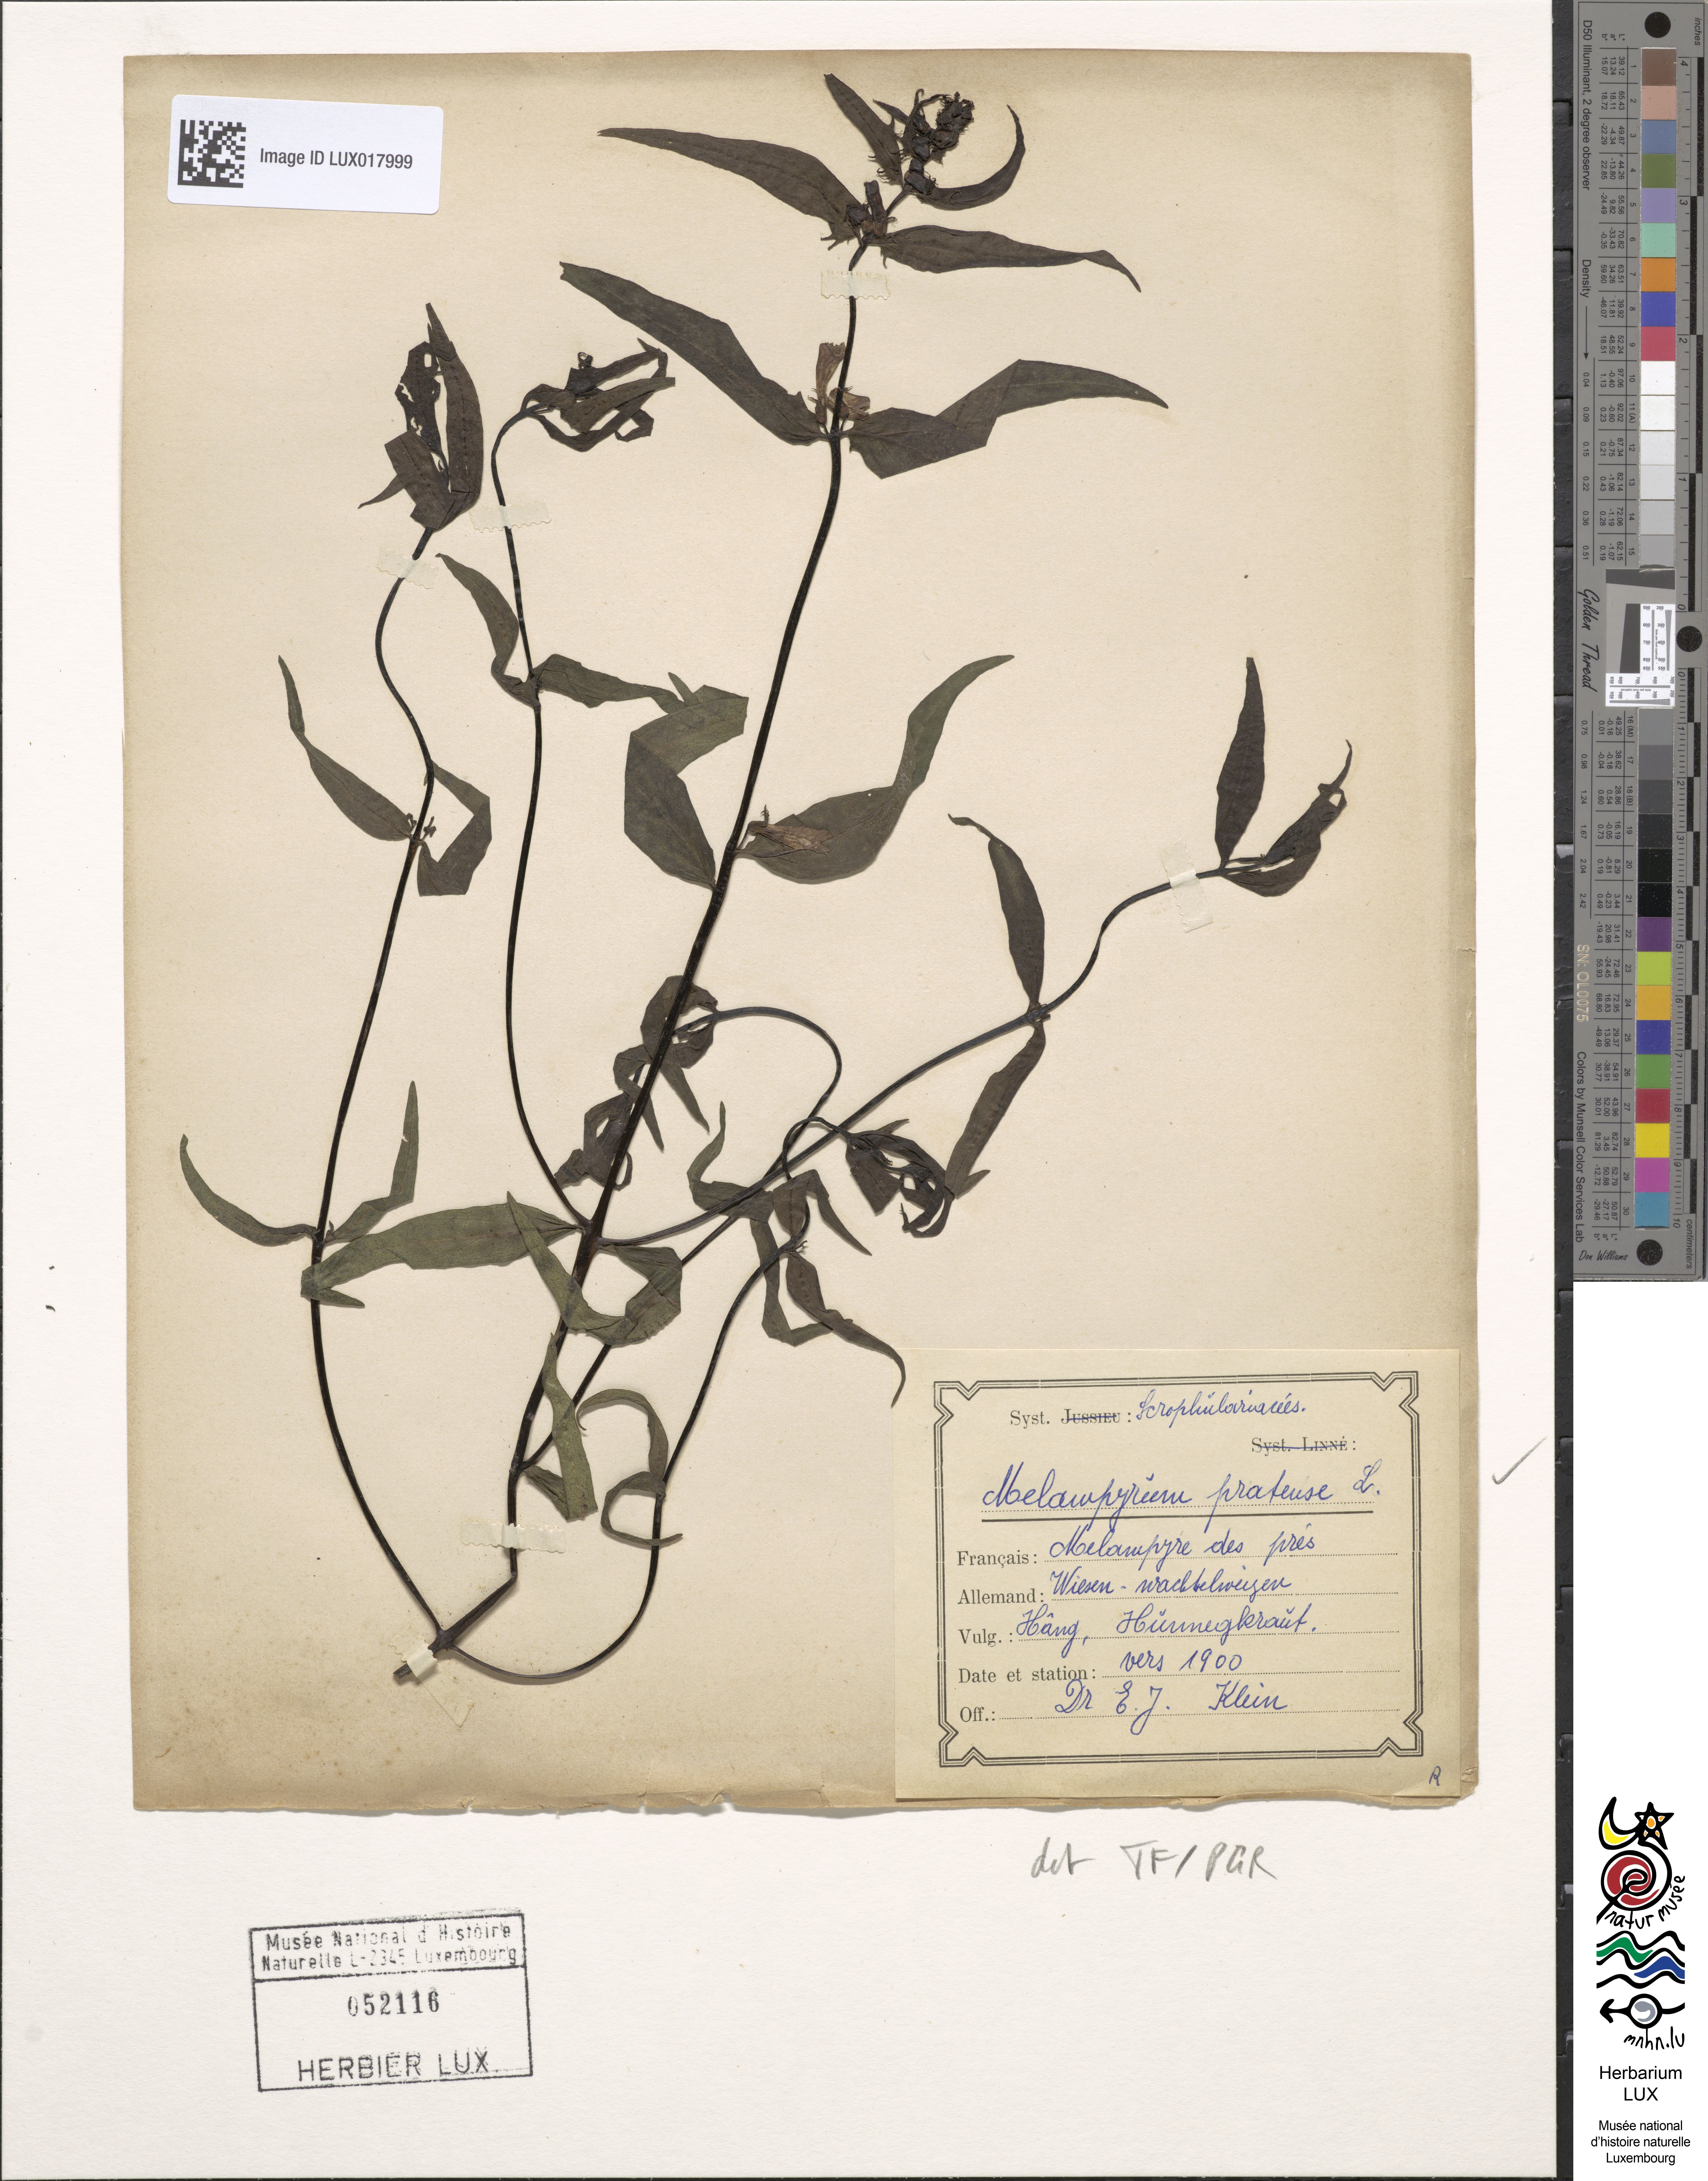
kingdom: Plantae
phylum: Tracheophyta
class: Magnoliopsida
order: Lamiales
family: Orobanchaceae
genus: Melampyrum
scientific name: Melampyrum pratense
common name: Common cow-wheat
